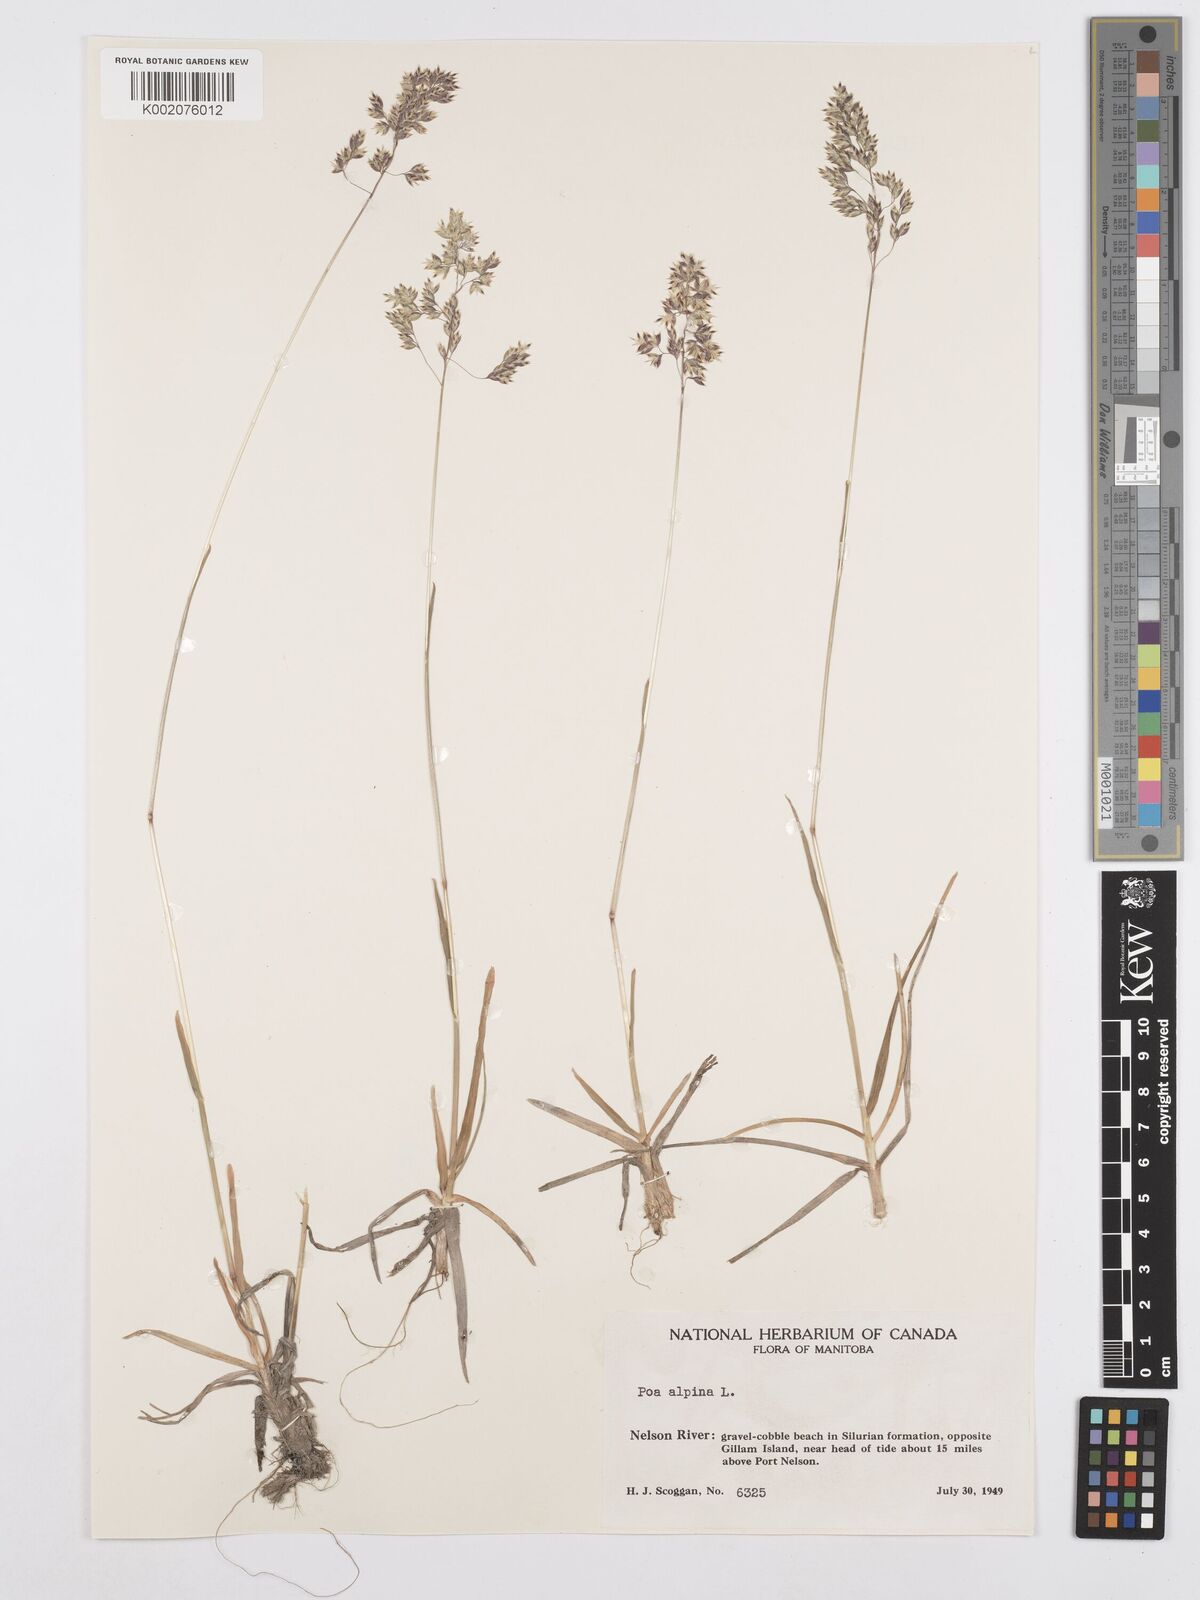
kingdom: Plantae
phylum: Tracheophyta
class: Liliopsida
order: Poales
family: Poaceae
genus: Poa
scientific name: Poa alpina
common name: Alpine bluegrass
